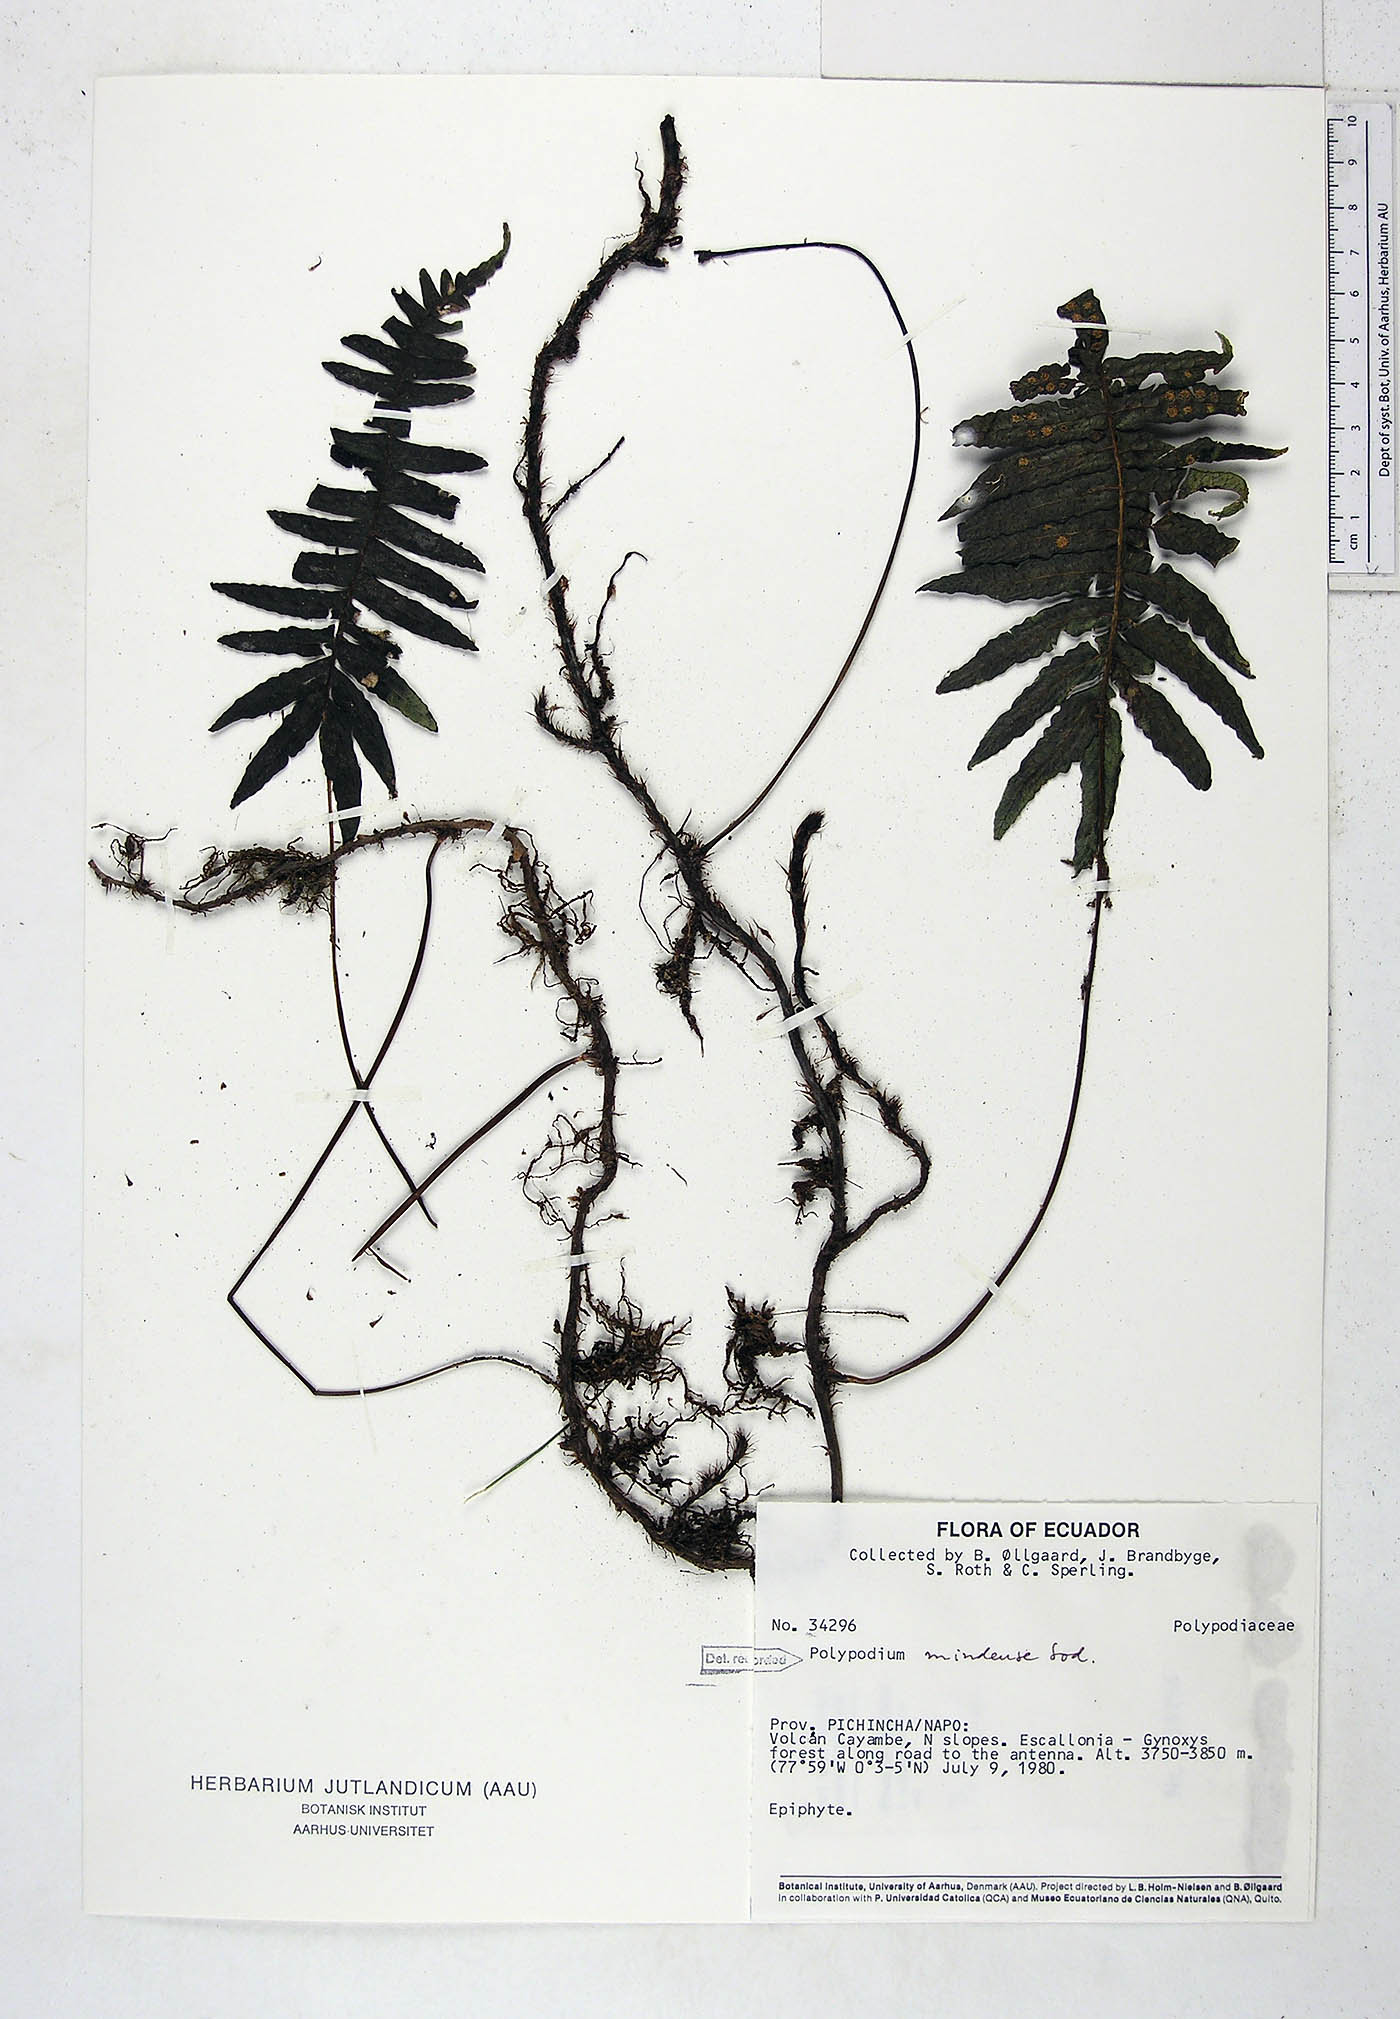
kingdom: Plantae
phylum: Tracheophyta
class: Polypodiopsida
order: Polypodiales
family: Polypodiaceae
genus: Serpocaulon
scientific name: Serpocaulon eleutherophlebium
